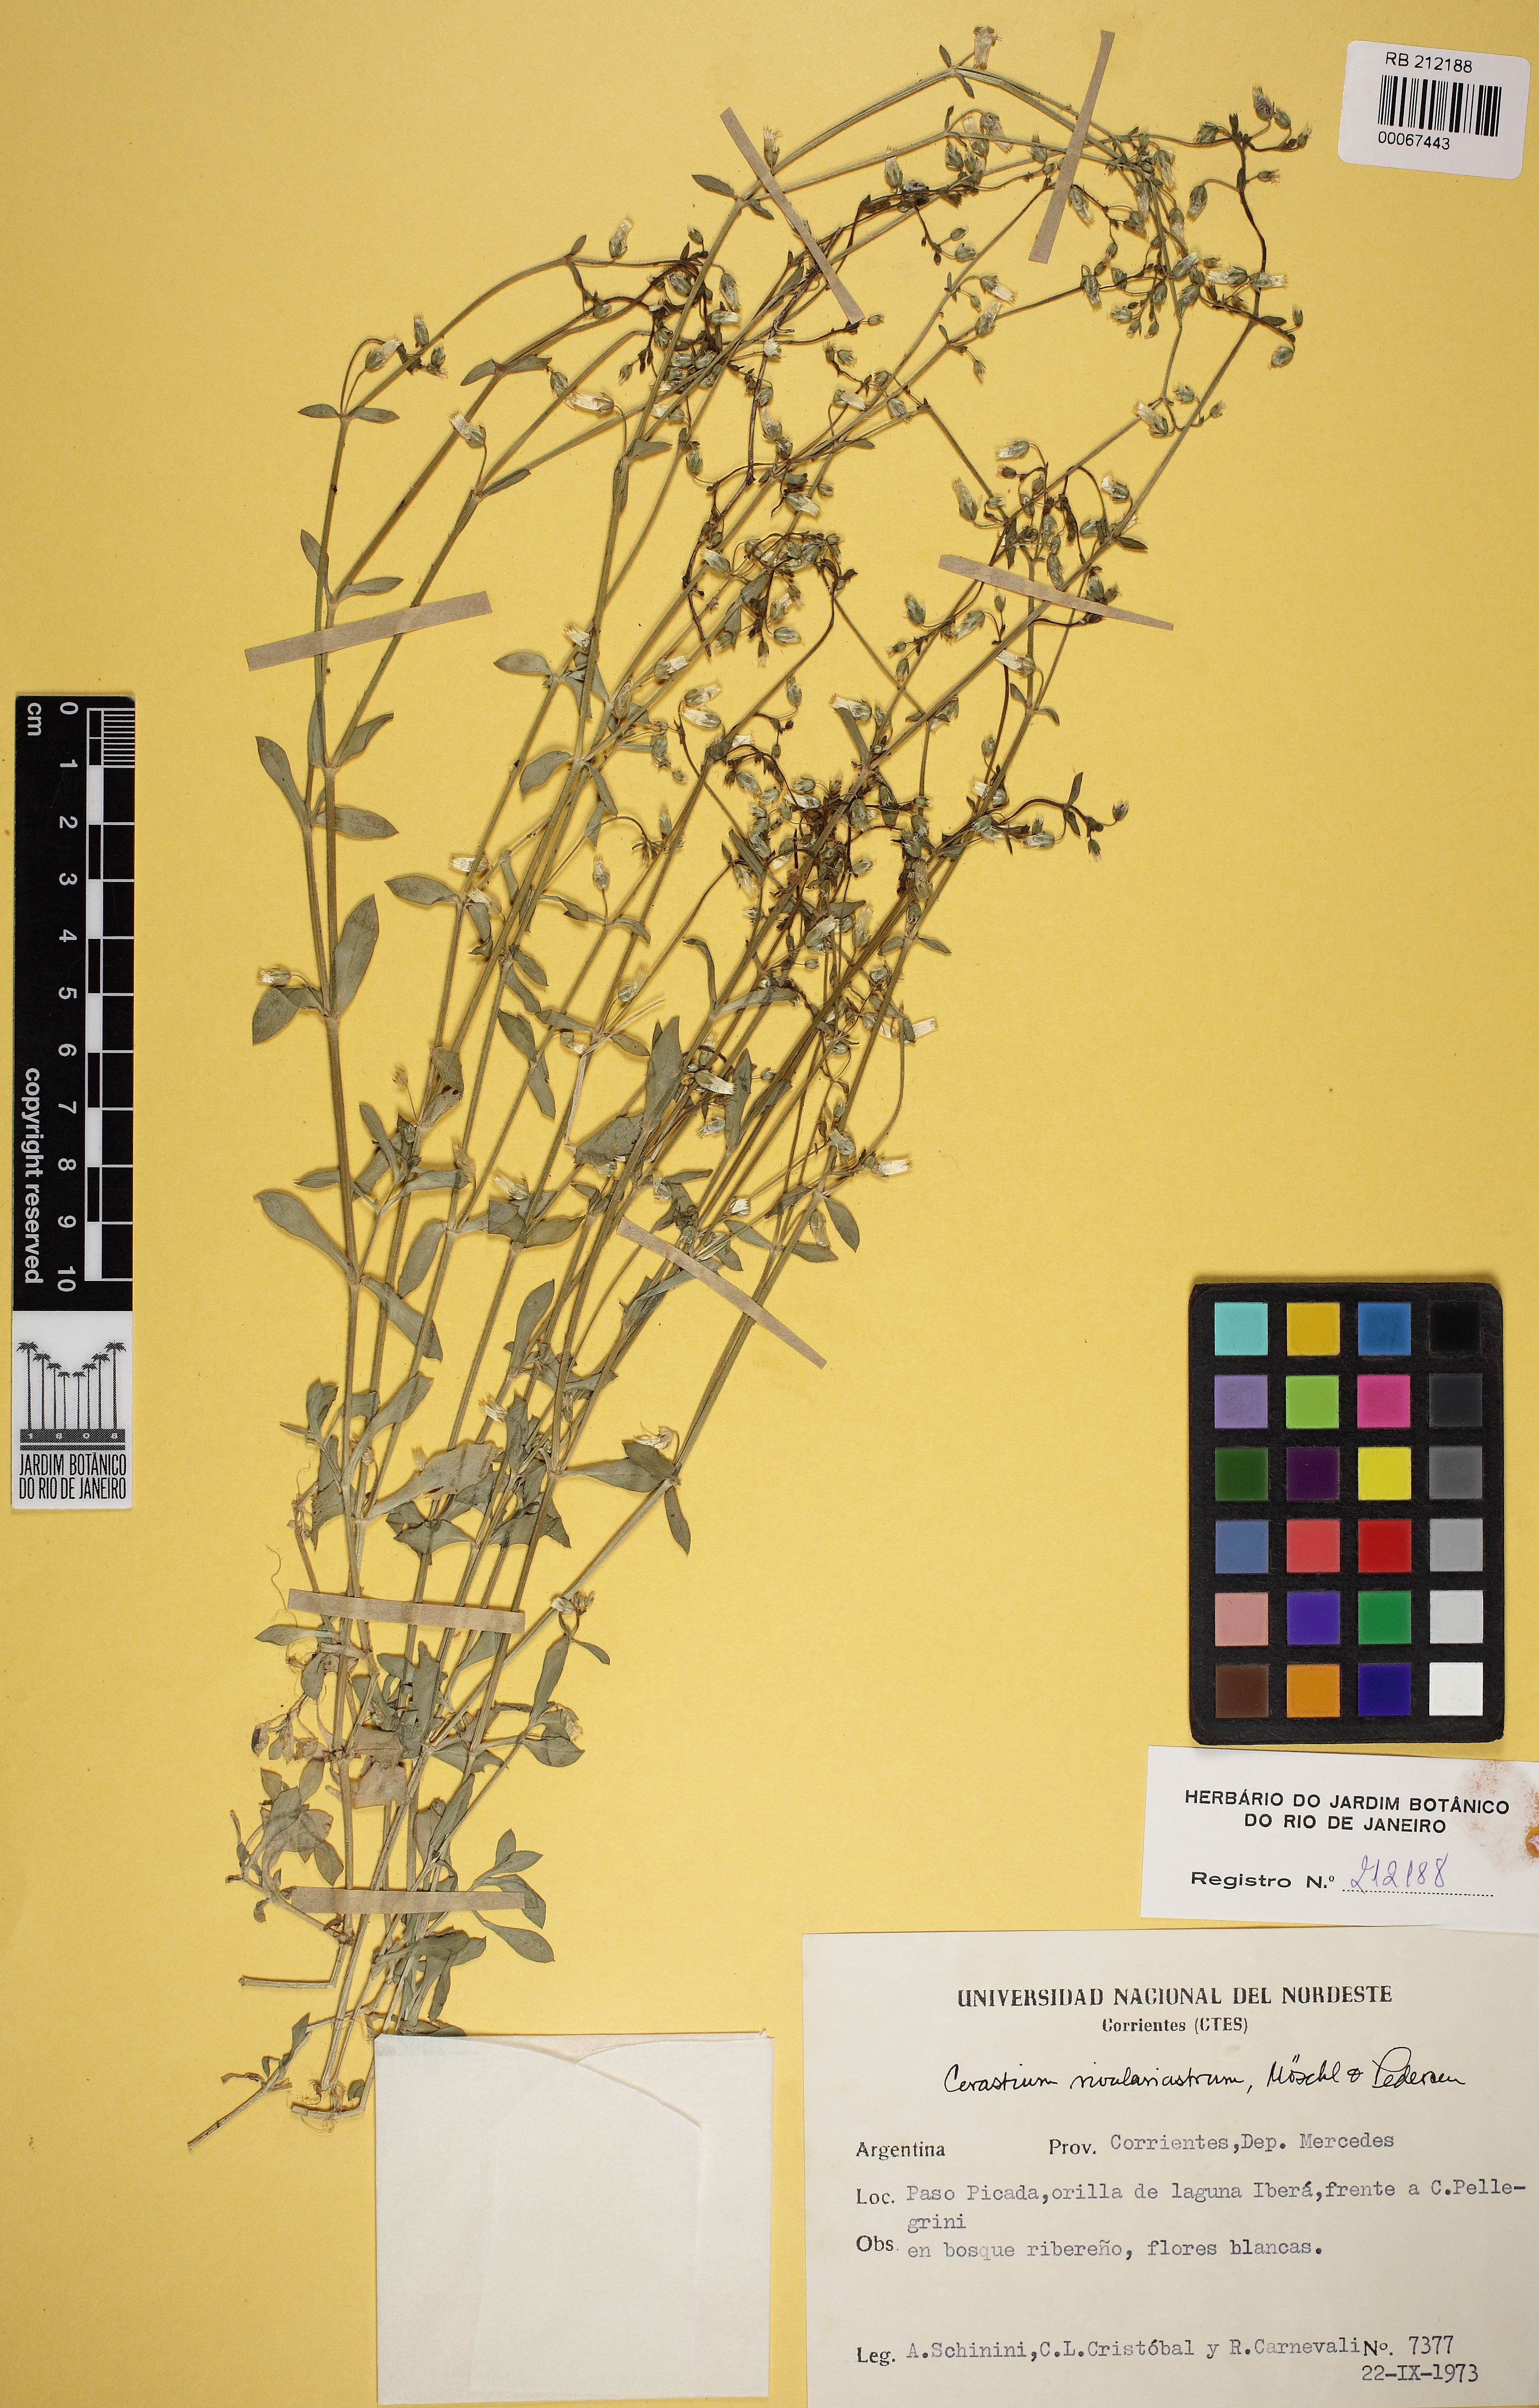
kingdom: Plantae
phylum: Tracheophyta
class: Magnoliopsida
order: Caryophyllales
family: Caryophyllaceae
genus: Cerastium
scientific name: Cerastium rivulariastrum
